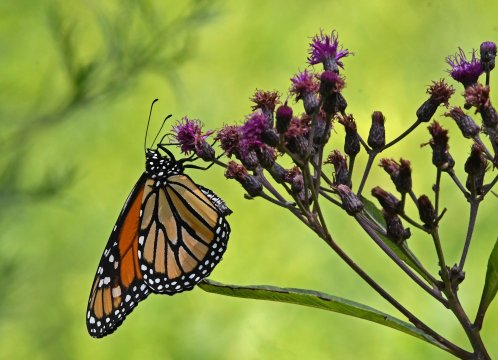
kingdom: Animalia
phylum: Arthropoda
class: Insecta
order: Lepidoptera
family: Nymphalidae
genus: Danaus
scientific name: Danaus plexippus
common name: Monarch
